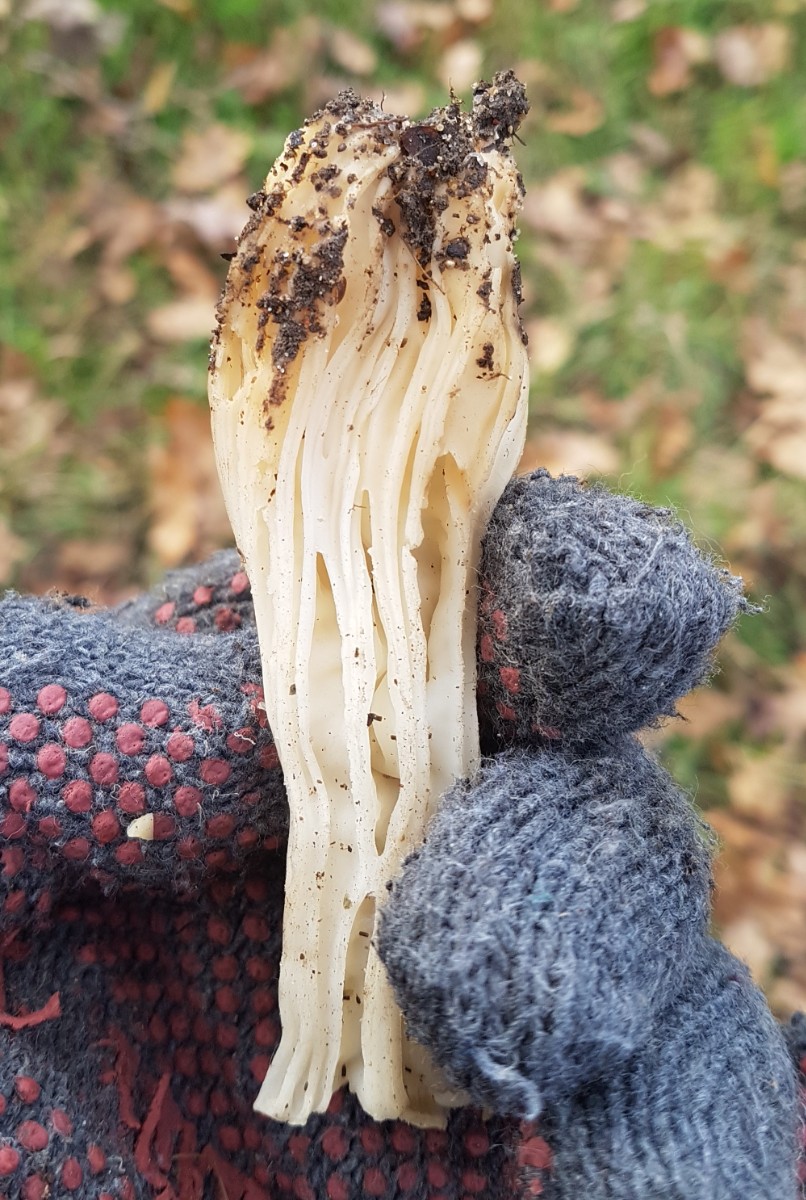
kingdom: Fungi
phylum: Ascomycota
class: Pezizomycetes
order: Pezizales
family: Helvellaceae
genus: Helvella
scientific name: Helvella crispa
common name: kruset foldhat
